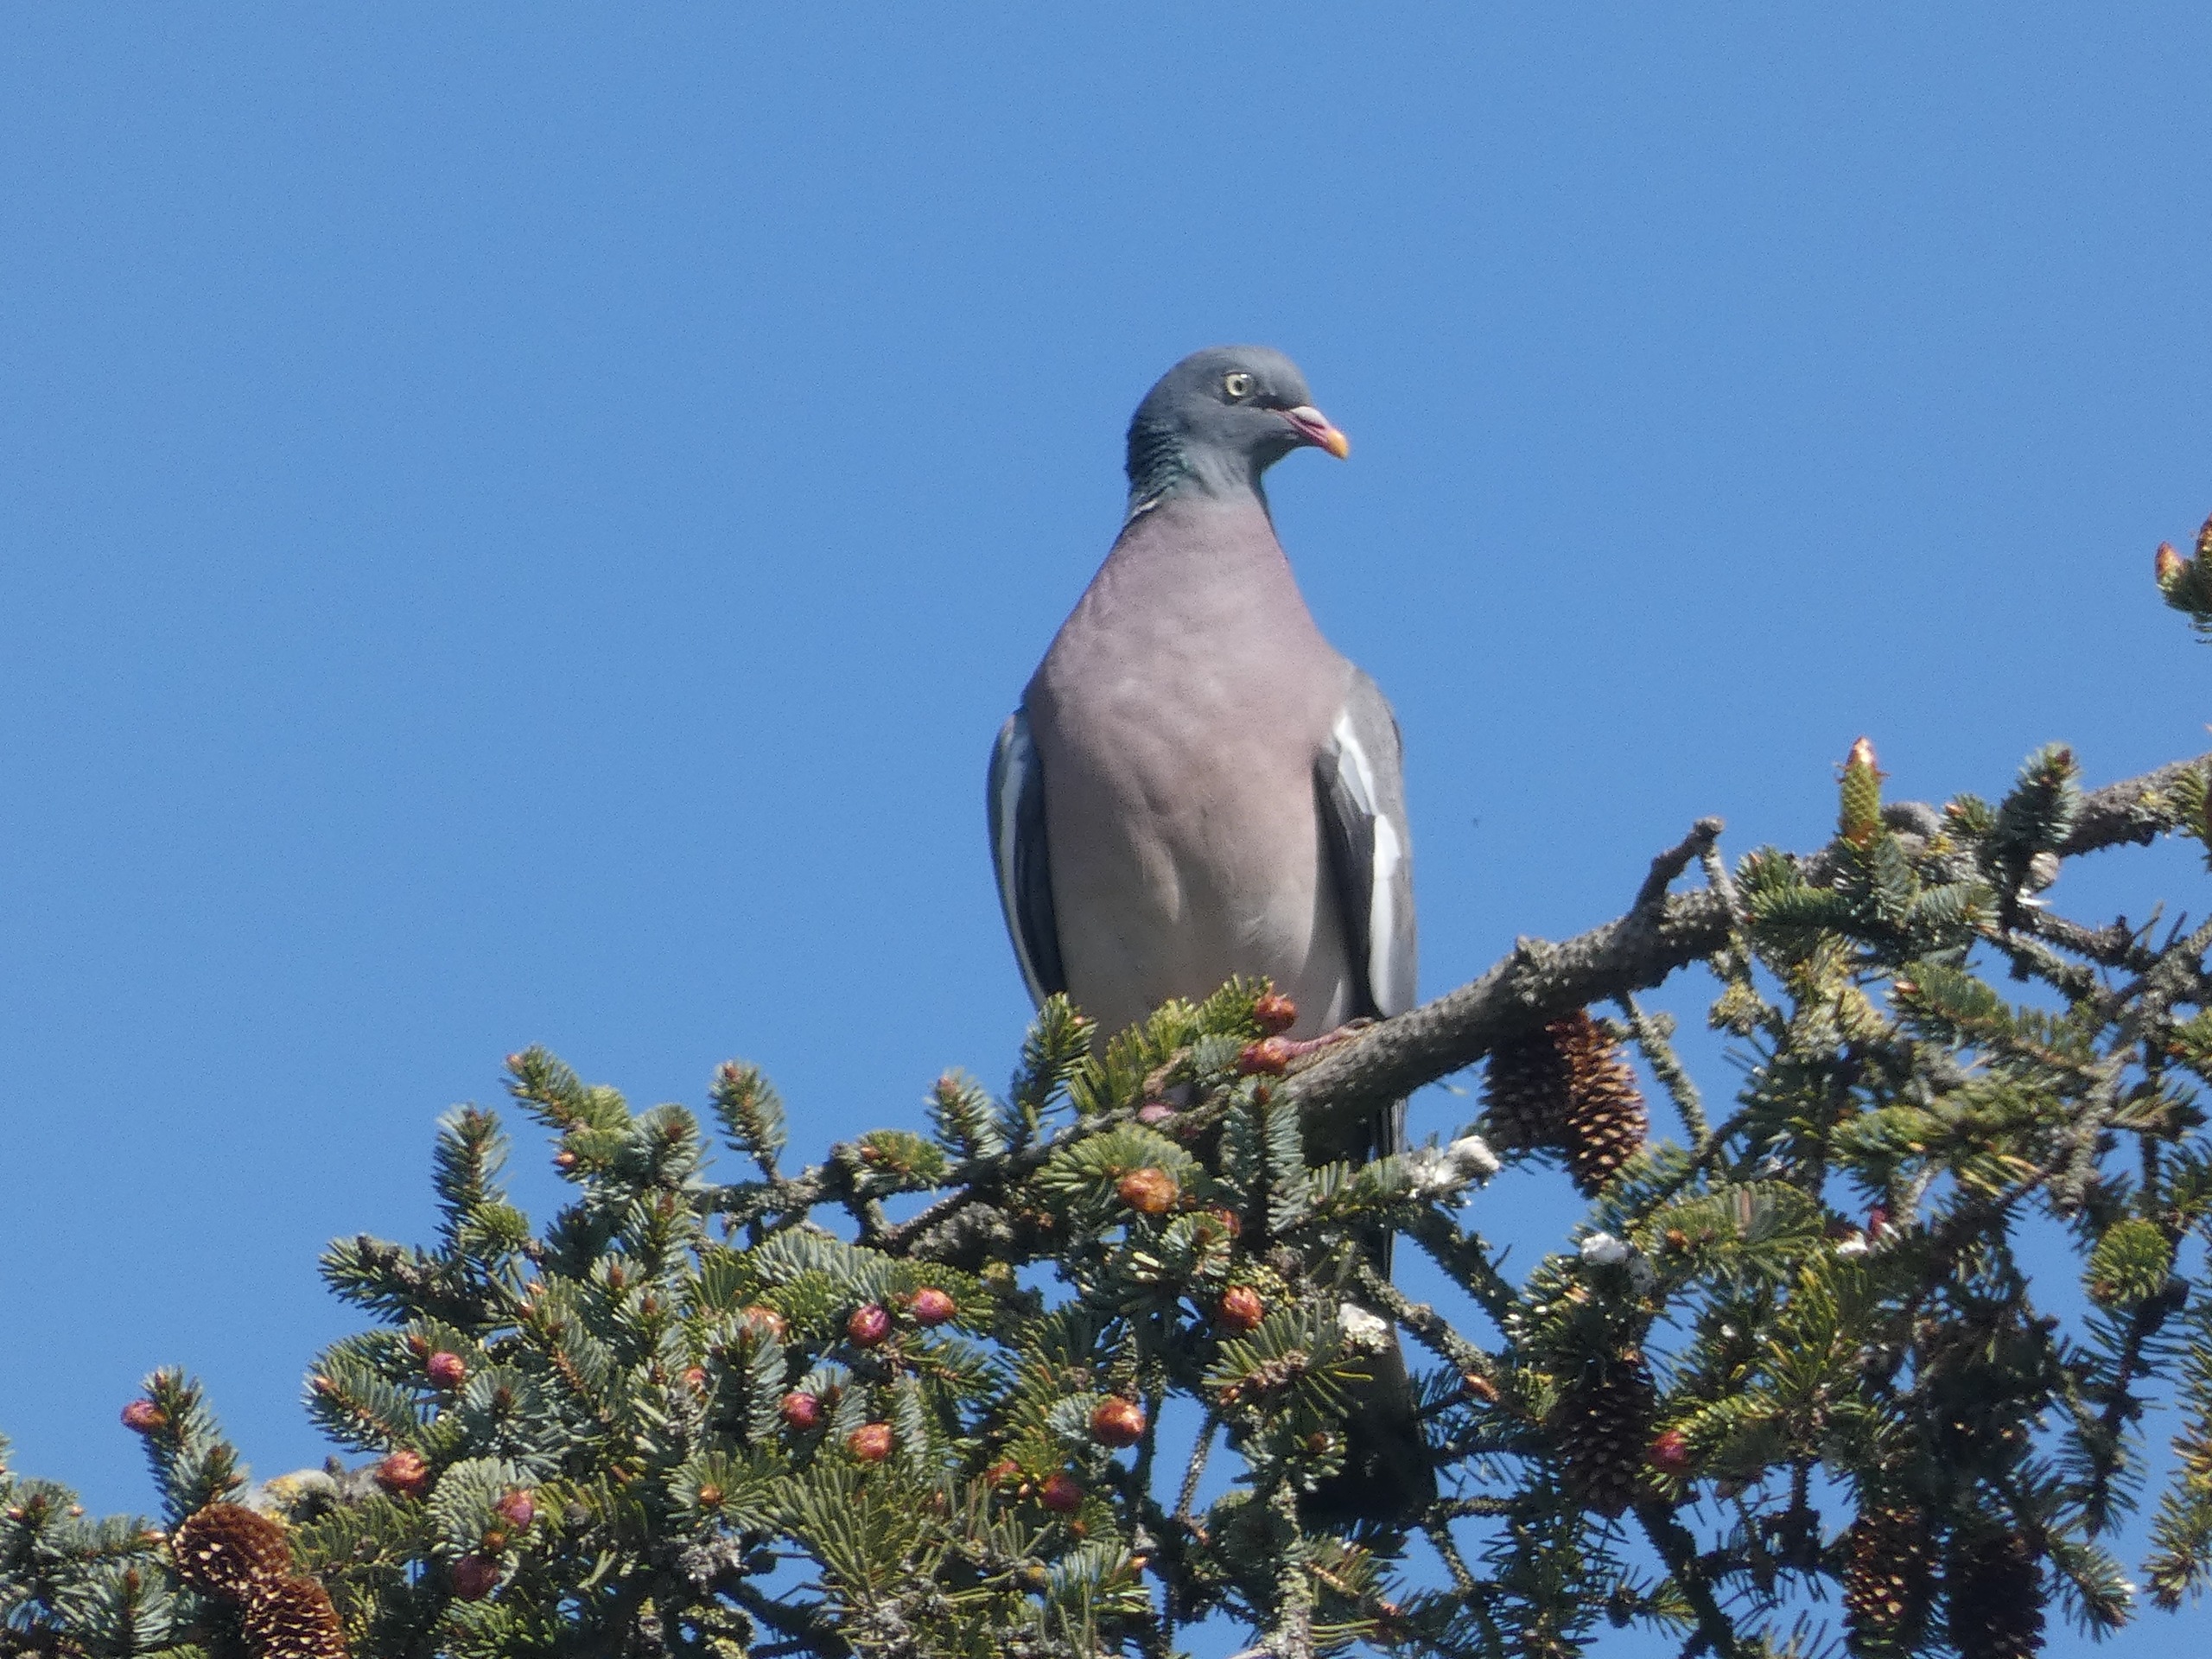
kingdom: Animalia
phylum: Chordata
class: Aves
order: Columbiformes
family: Columbidae
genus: Columba
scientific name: Columba palumbus
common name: Ringdue
